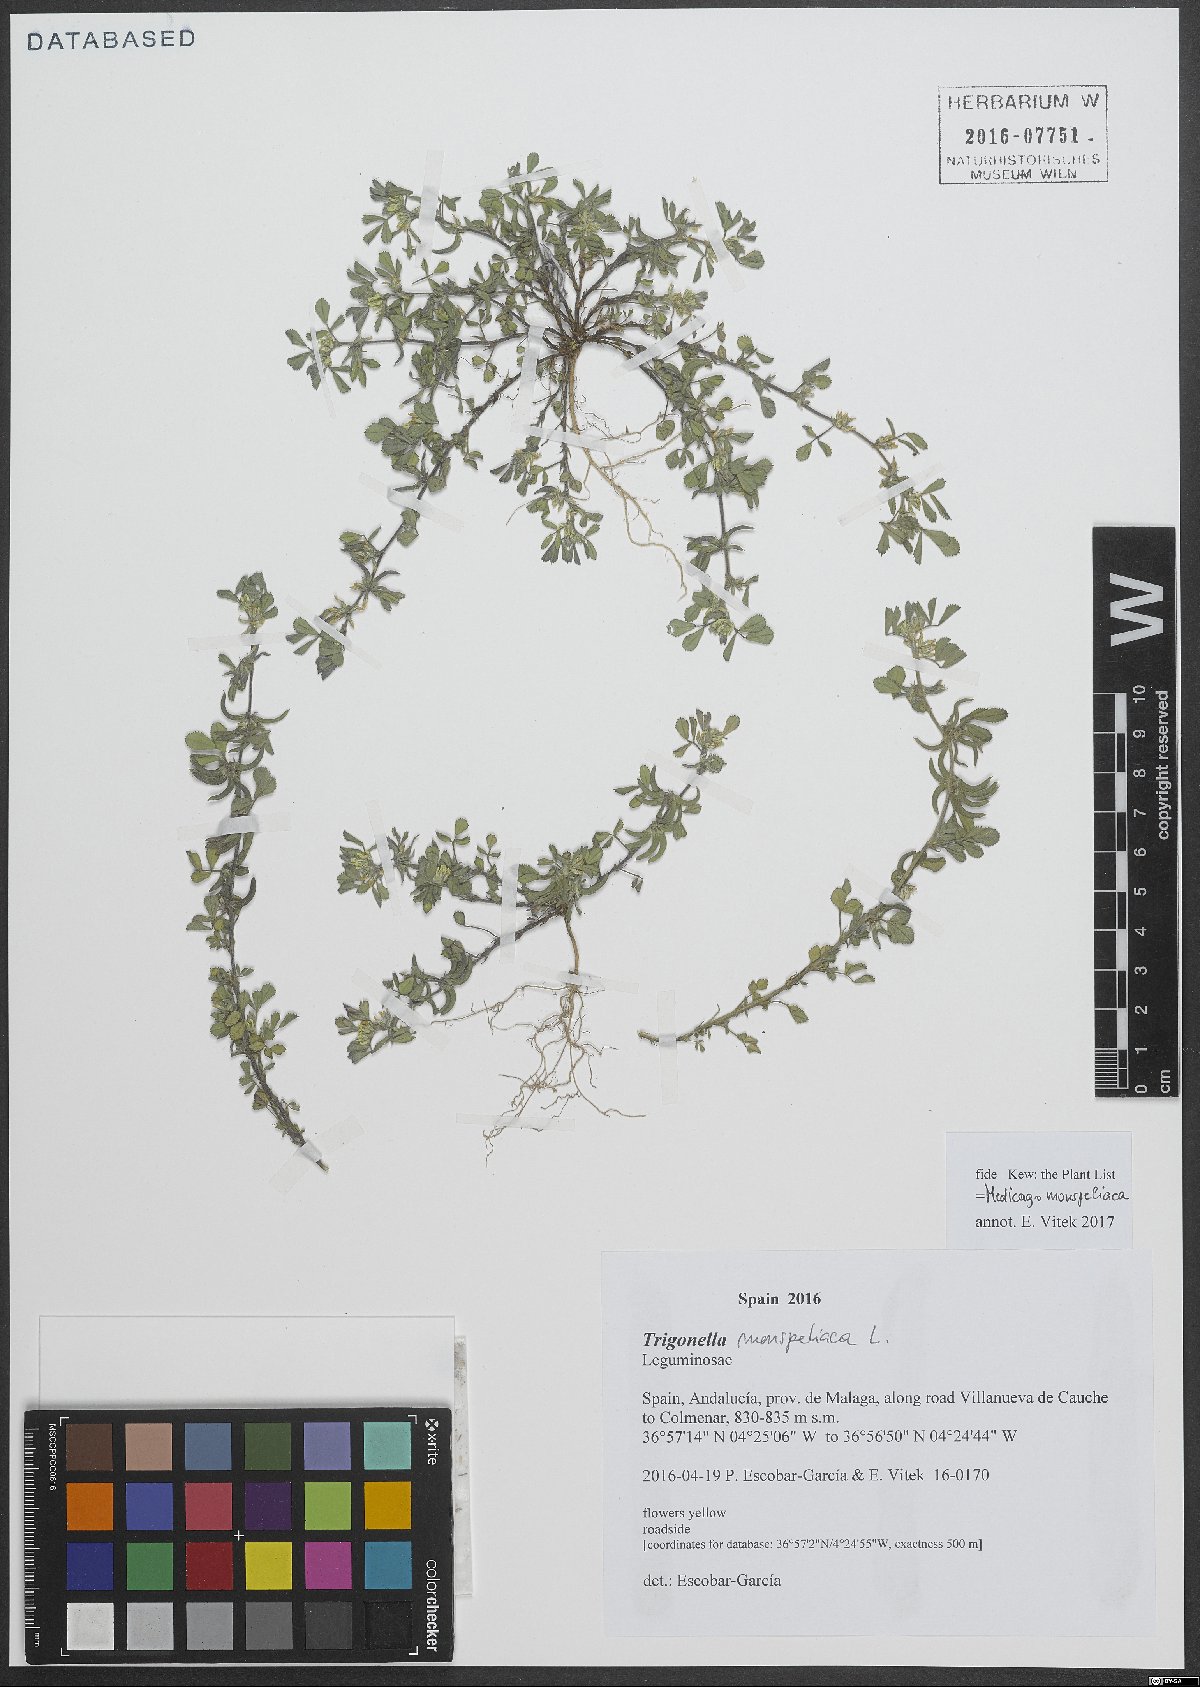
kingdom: Plantae
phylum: Tracheophyta
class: Magnoliopsida
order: Fabales
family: Fabaceae
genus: Medicago
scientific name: Medicago monspeliaca
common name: Hairy medick
